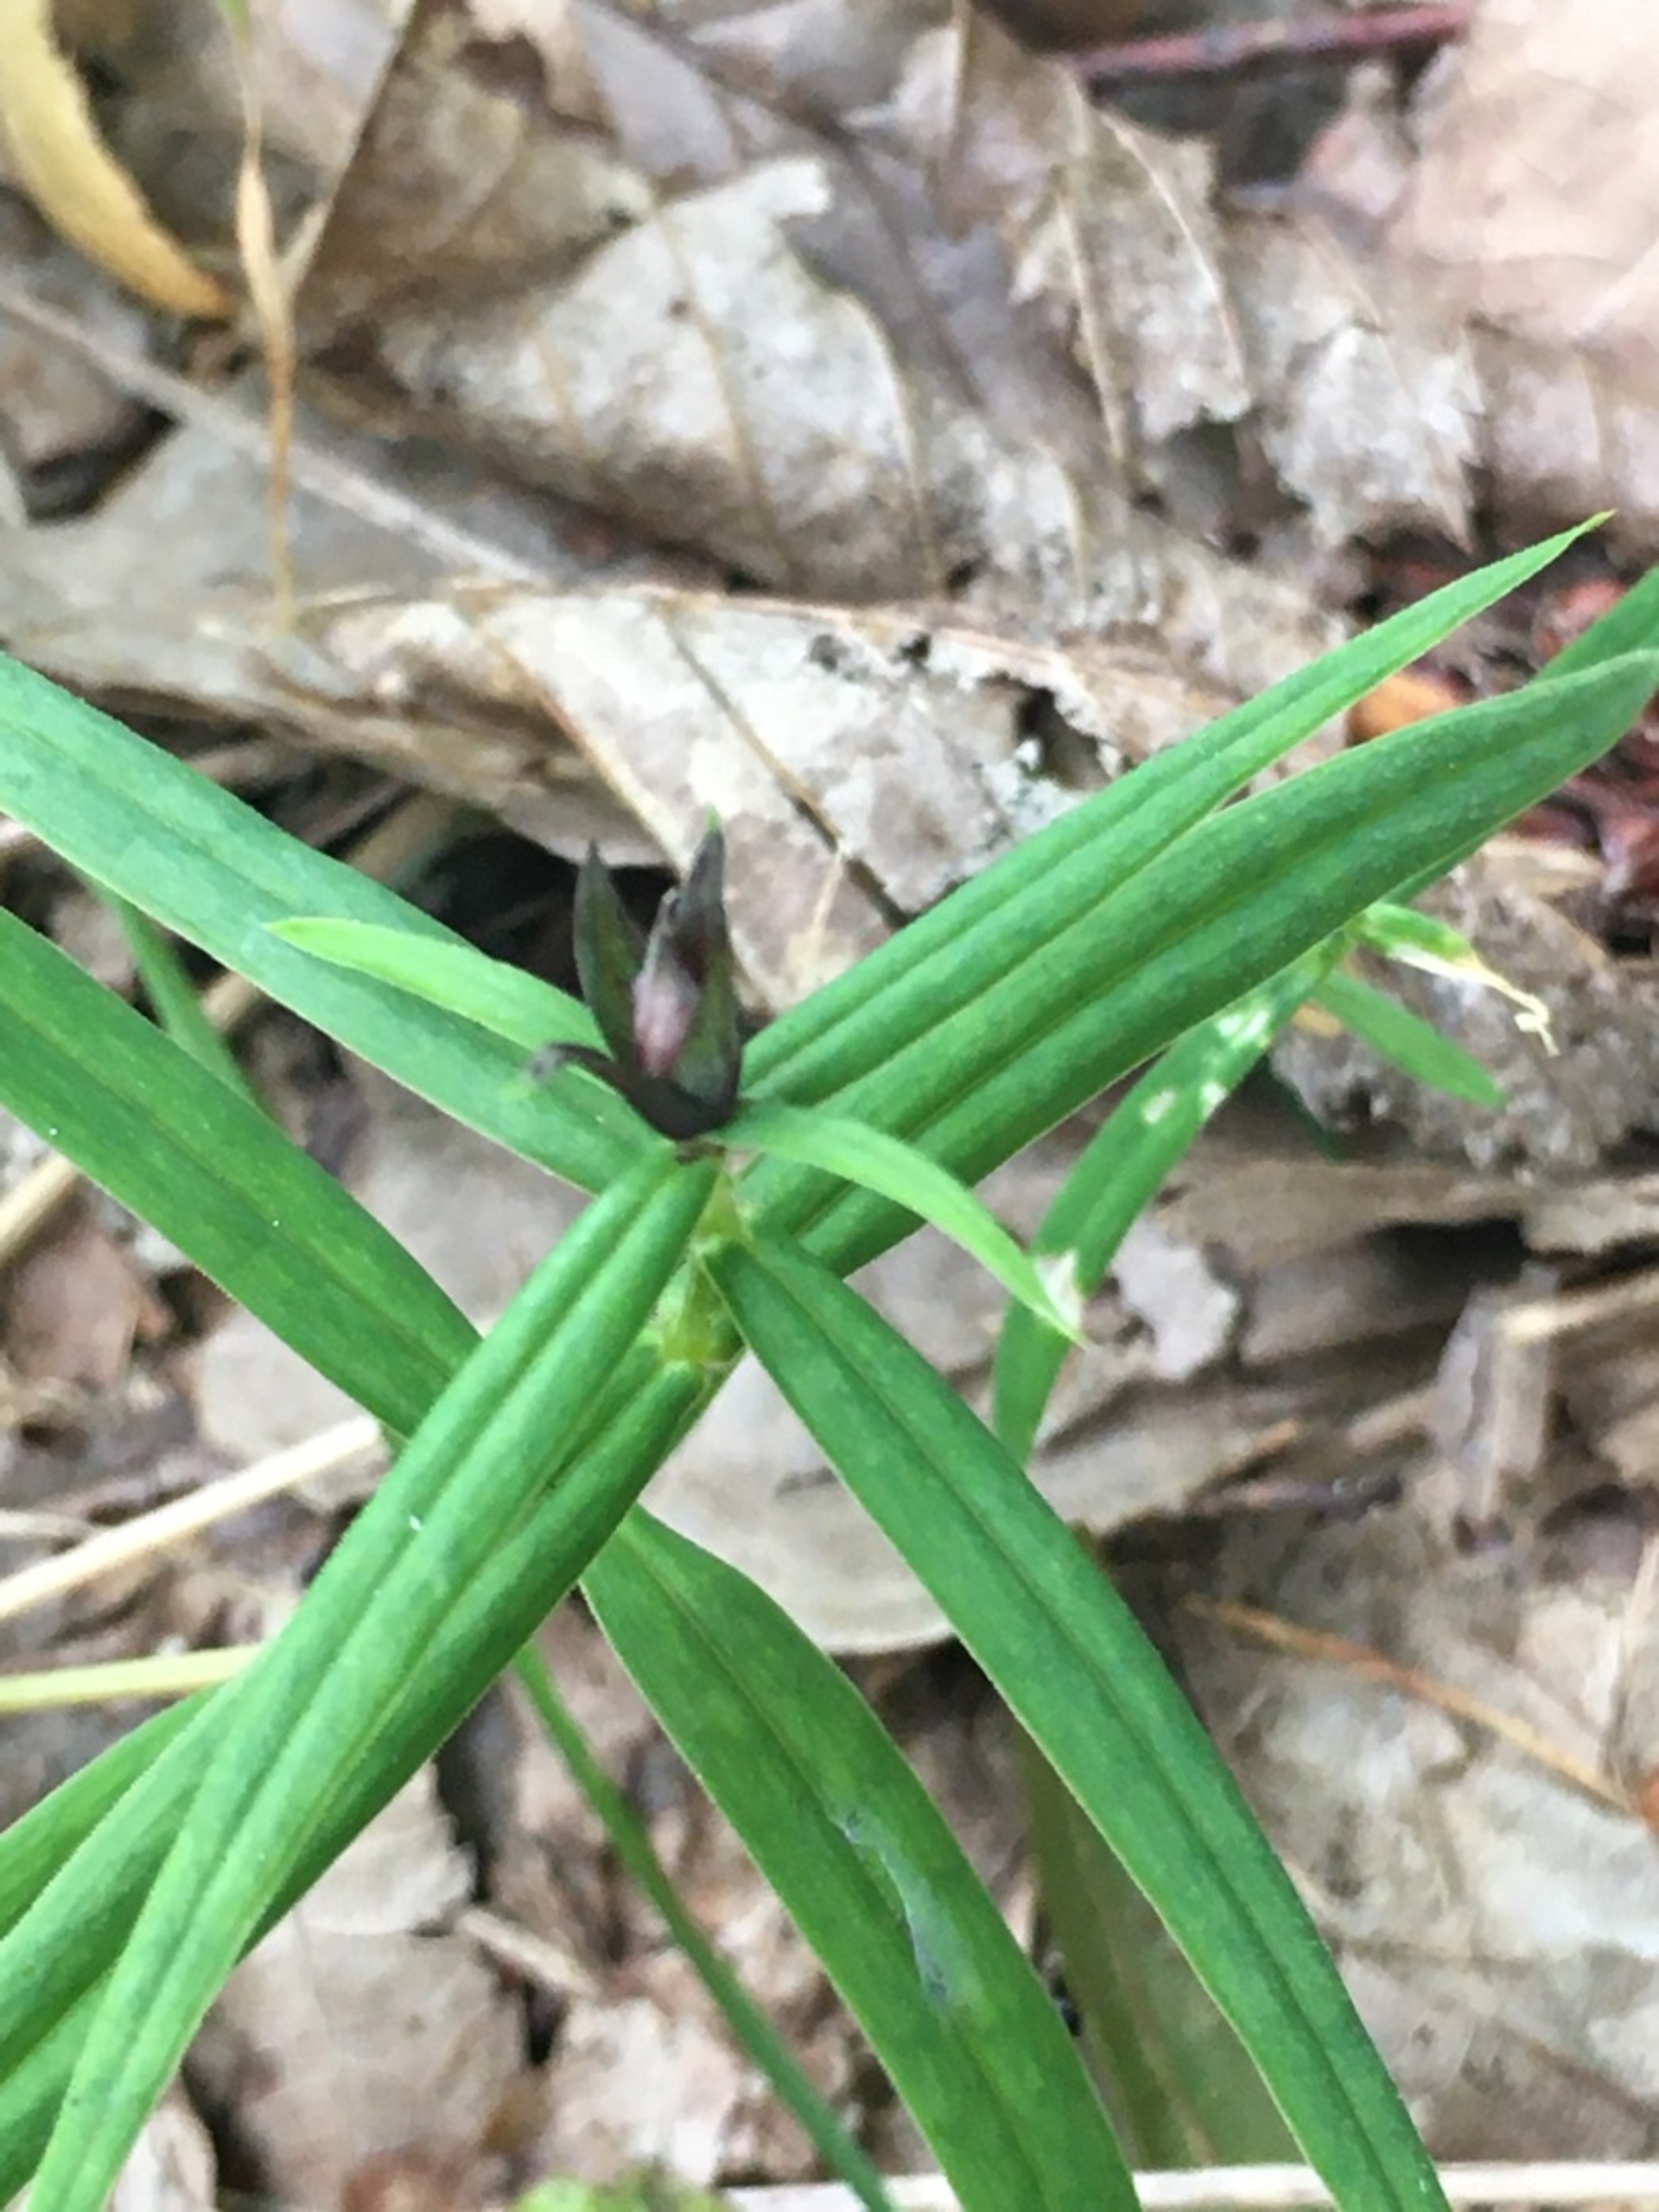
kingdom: Animalia
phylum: Arthropoda
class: Insecta
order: Diptera
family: Cecidomyiidae
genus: Dasineura
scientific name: Dasineura stellariae
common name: Fladstjernegalmyg
